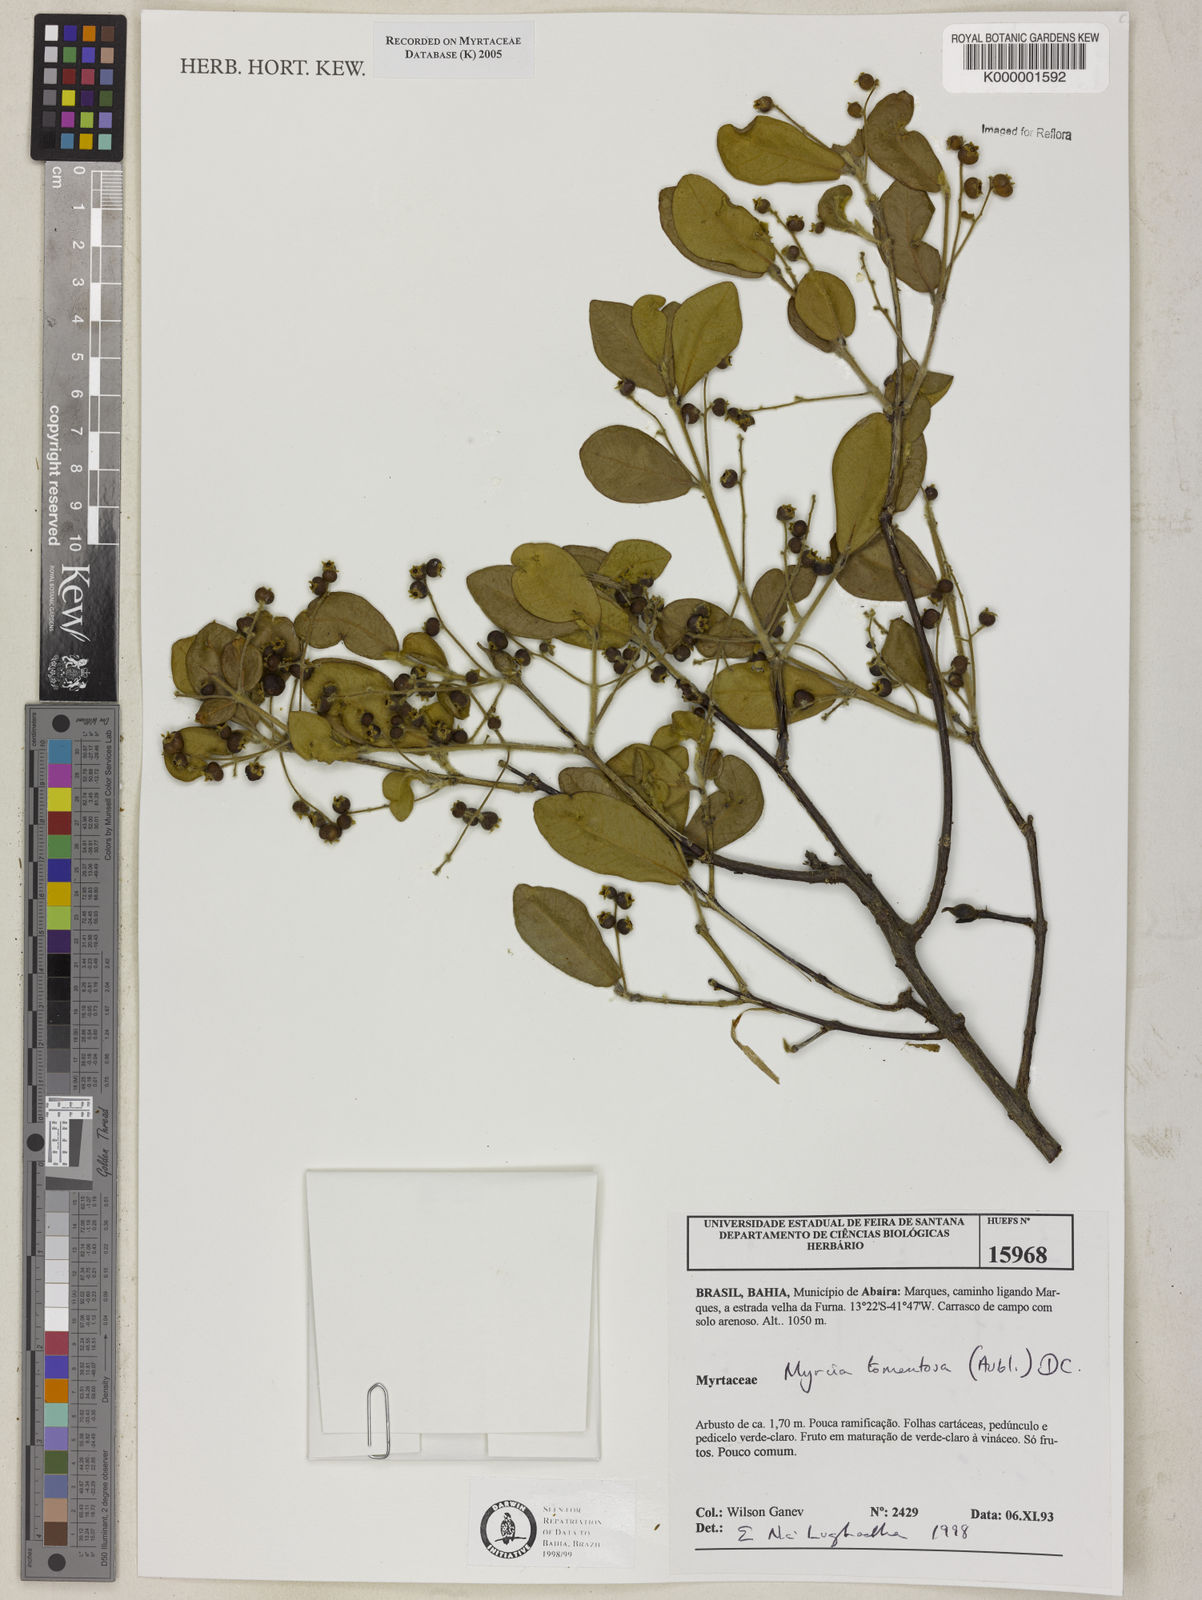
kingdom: Plantae
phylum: Tracheophyta
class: Magnoliopsida
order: Myrtales
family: Myrtaceae
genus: Myrcia
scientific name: Myrcia tomentosa
